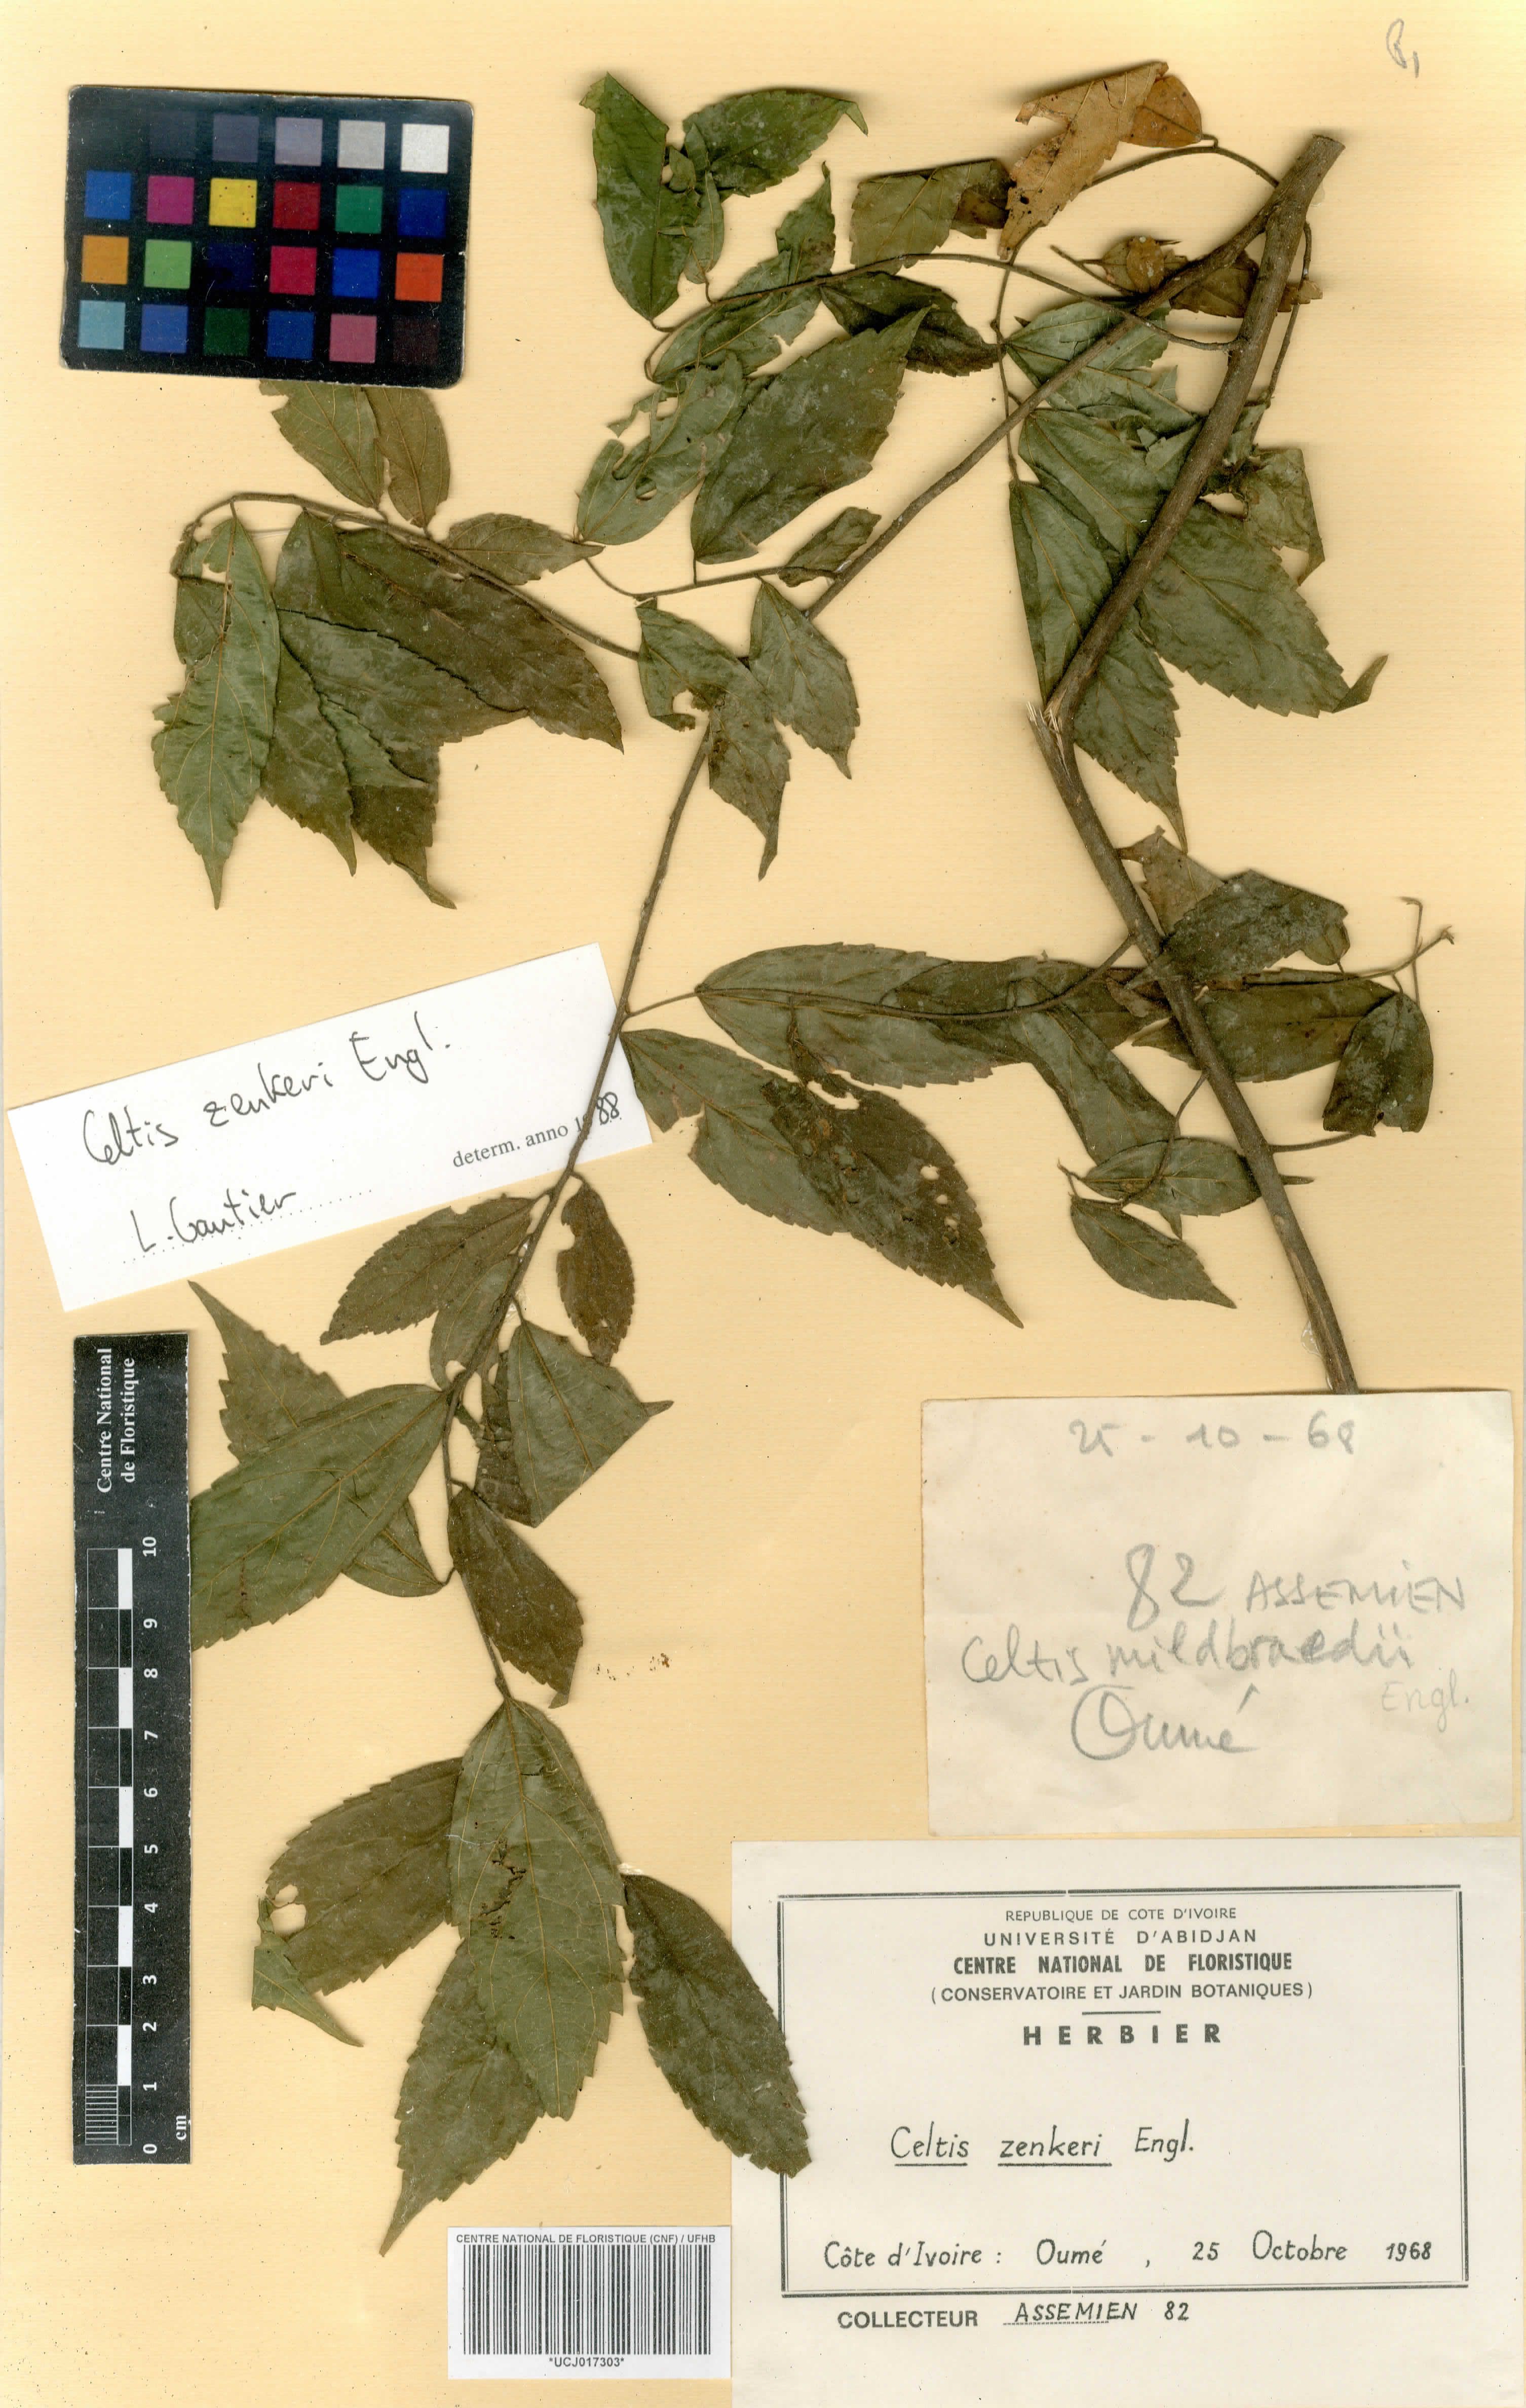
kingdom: Plantae
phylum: Tracheophyta
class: Magnoliopsida
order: Rosales
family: Cannabaceae
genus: Celtis
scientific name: Celtis zenkeri
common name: African celtis
